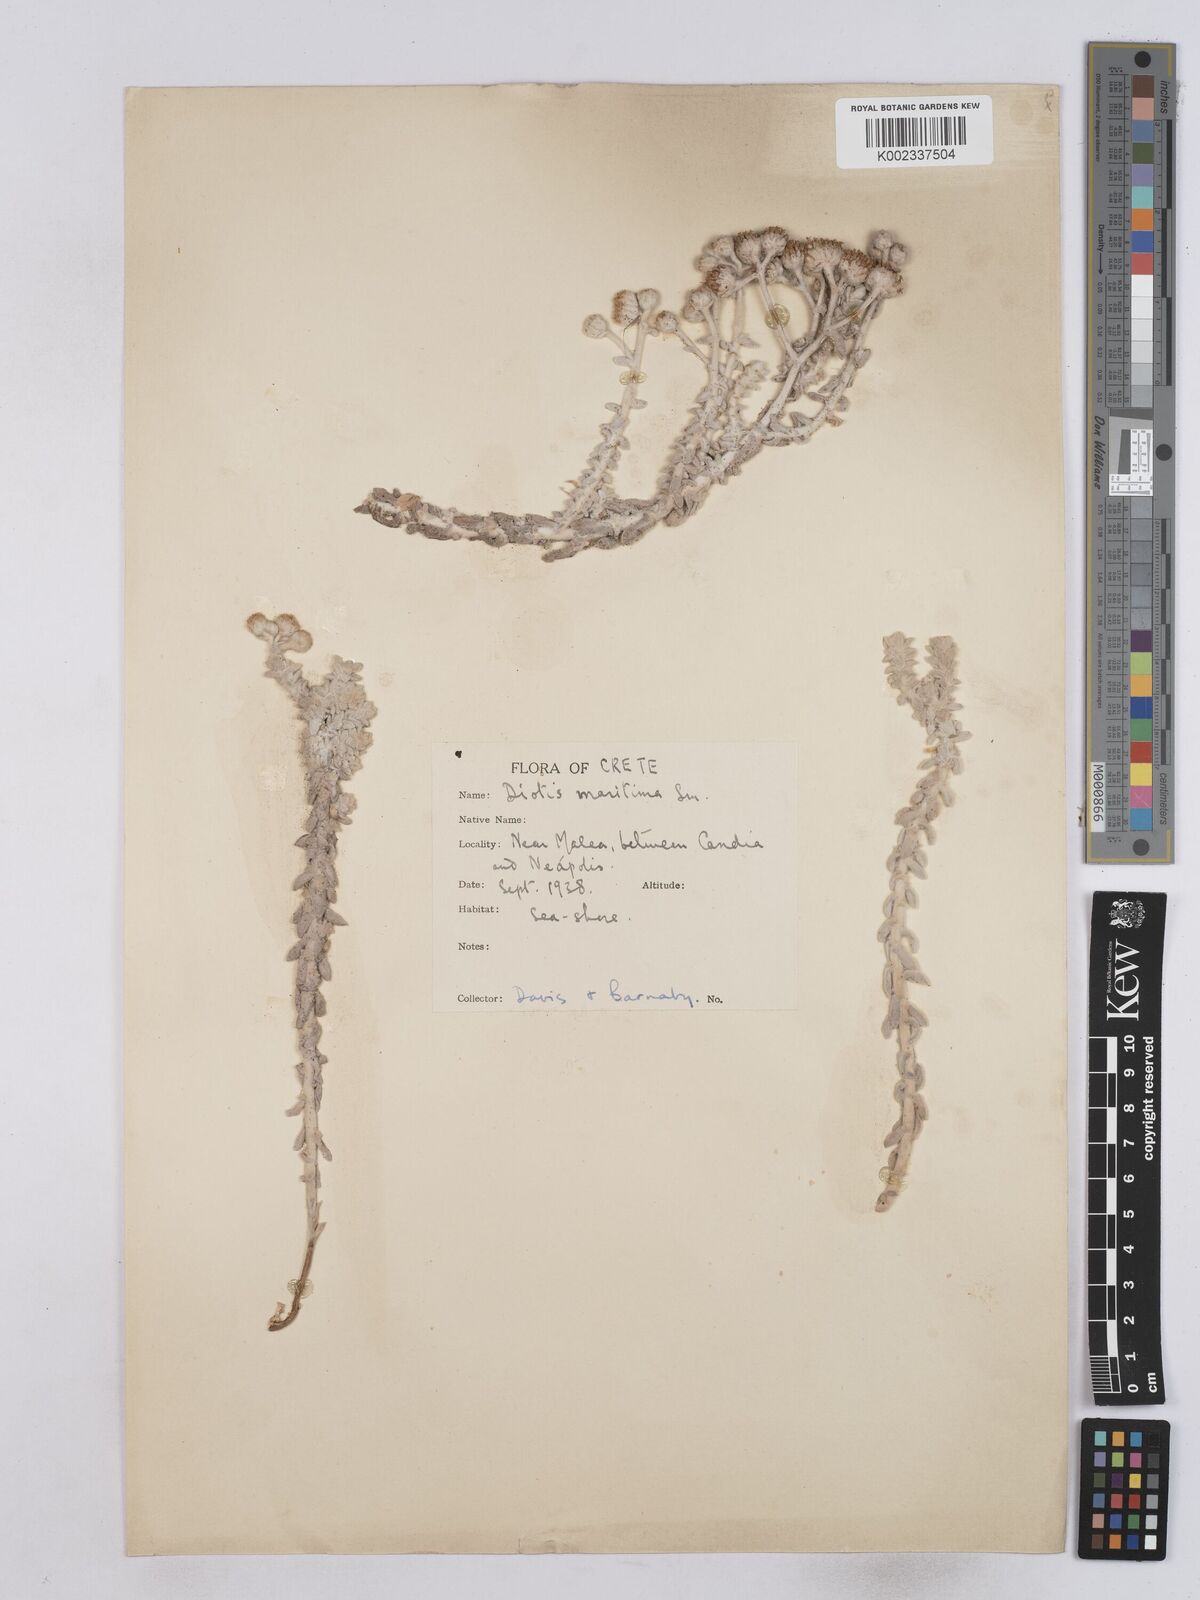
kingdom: Plantae
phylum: Tracheophyta
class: Magnoliopsida
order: Asterales
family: Asteraceae
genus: Achillea
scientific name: Achillea maritima
